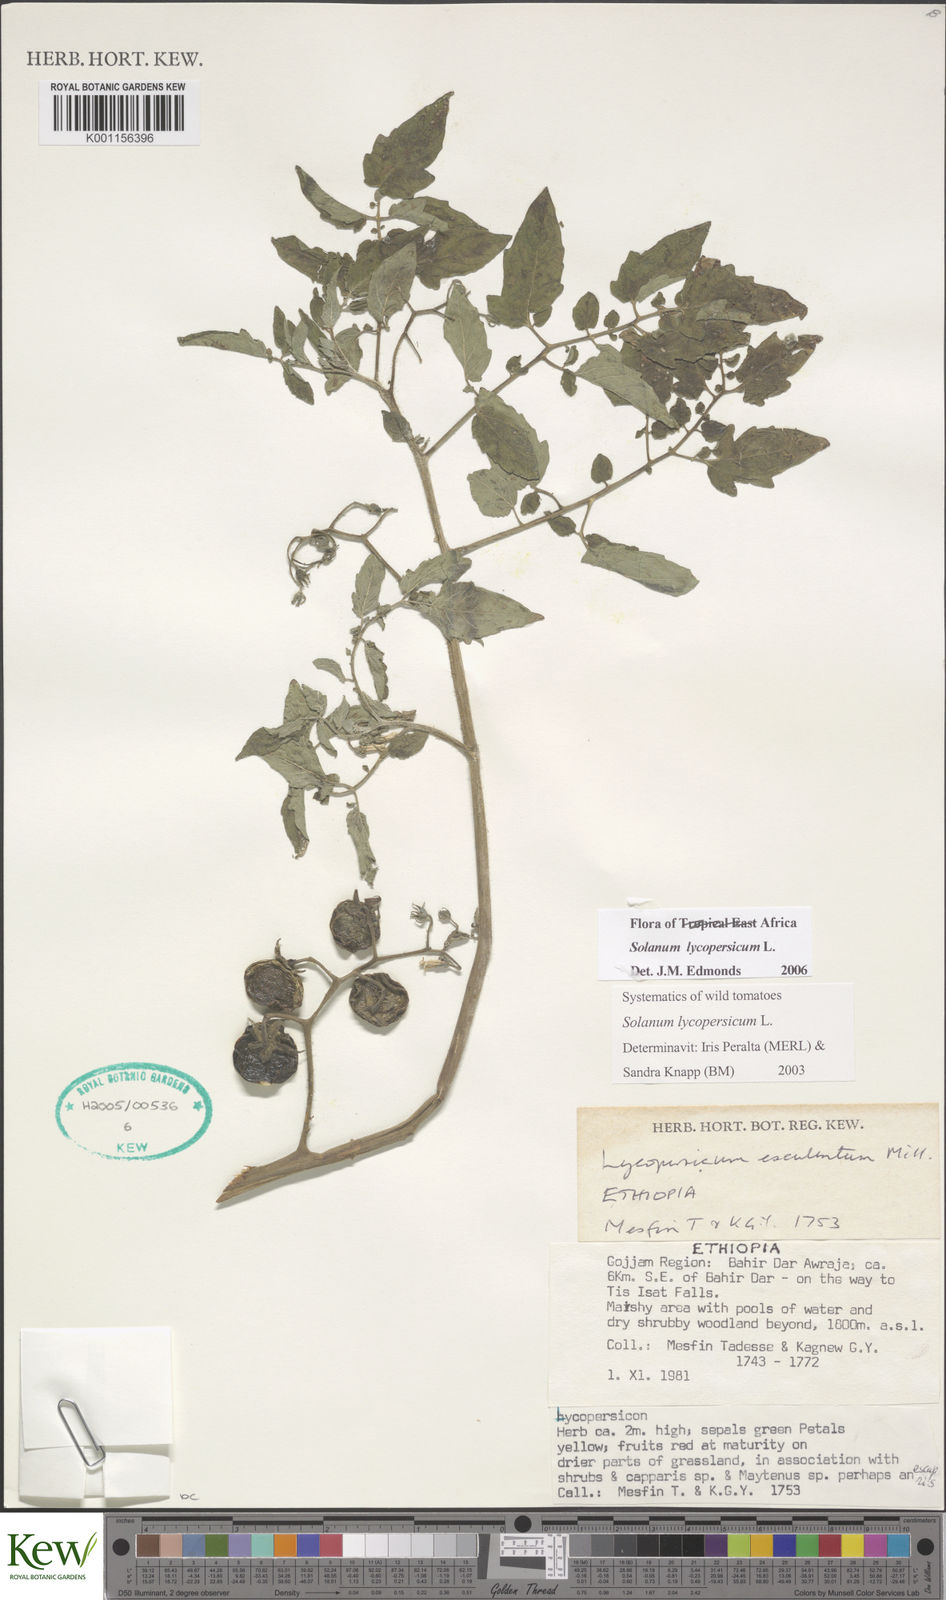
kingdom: Plantae
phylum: Tracheophyta
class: Magnoliopsida
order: Solanales
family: Solanaceae
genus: Solanum
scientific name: Solanum lycopersicum
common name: Garden tomato
